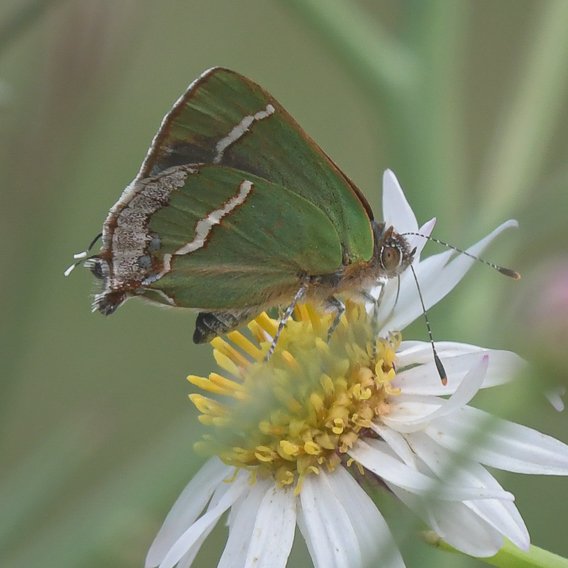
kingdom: Animalia
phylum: Arthropoda
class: Insecta
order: Lepidoptera
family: Lycaenidae
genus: Chlorostrymon
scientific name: Chlorostrymon simaethis
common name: Silver-banded Hairstreak
